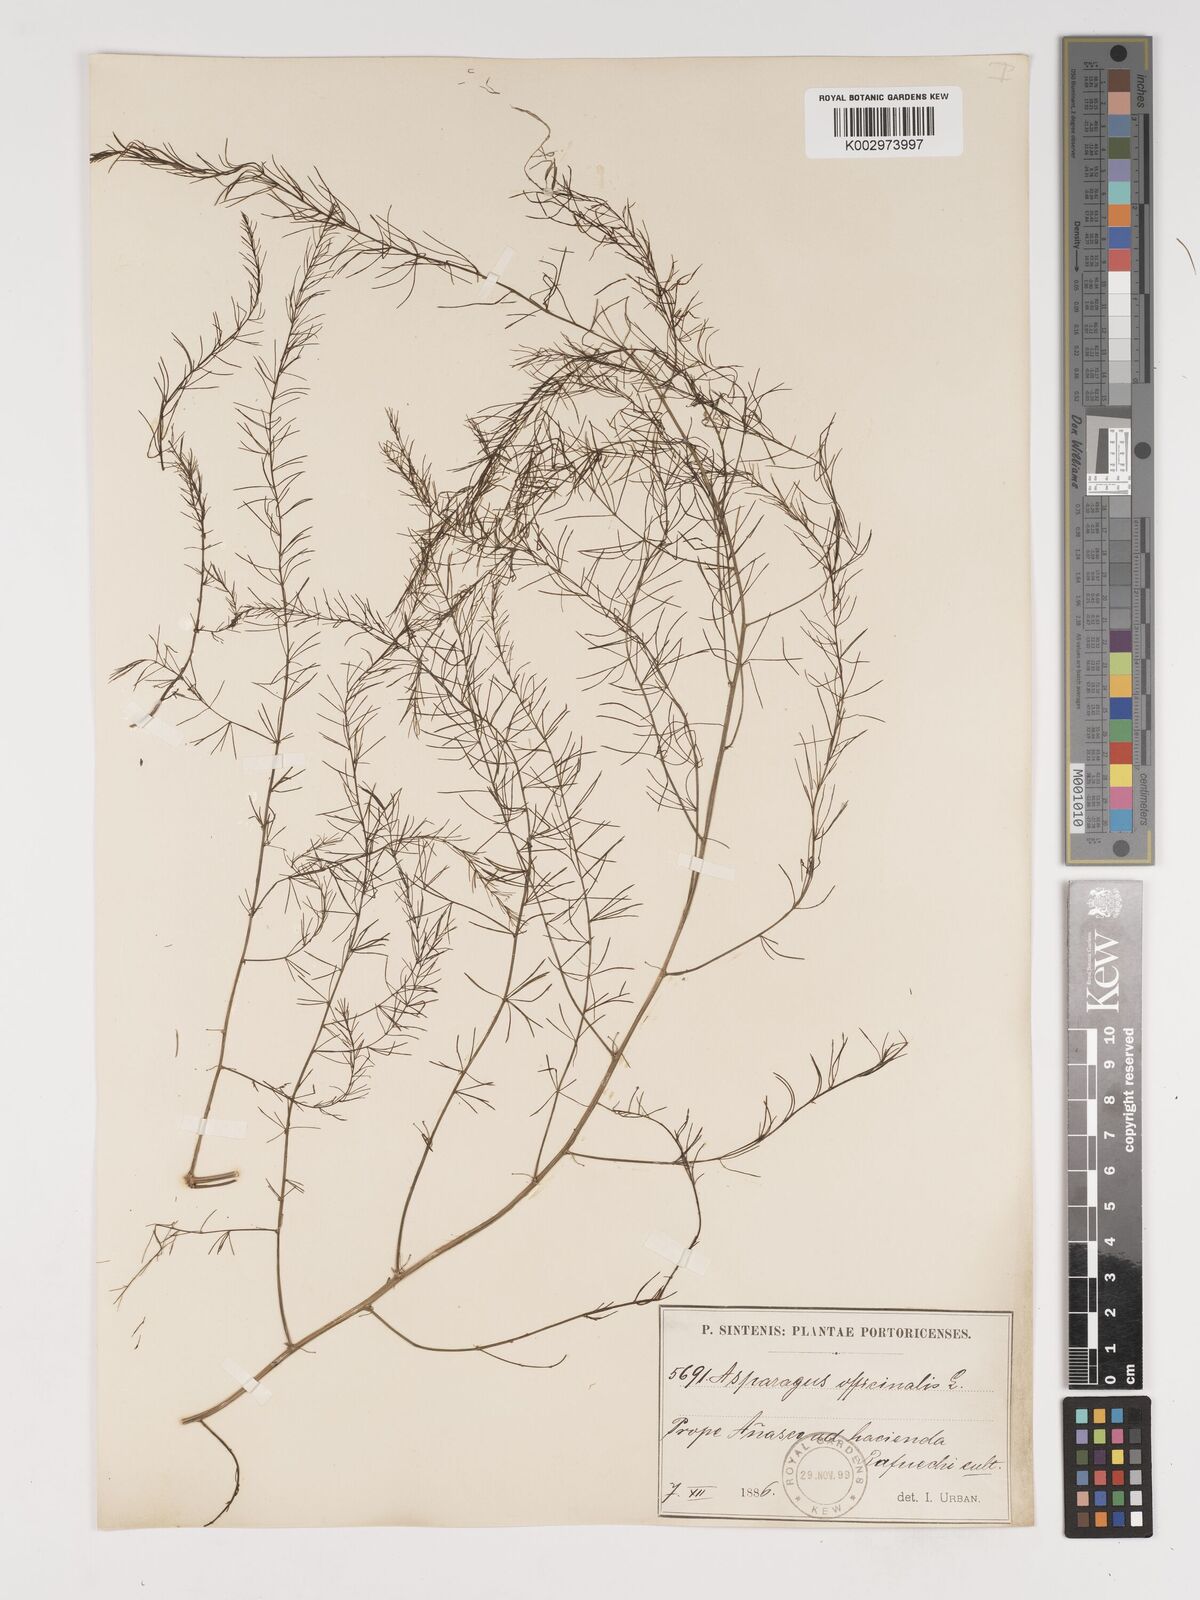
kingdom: Plantae
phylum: Tracheophyta
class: Liliopsida
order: Asparagales
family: Asparagaceae
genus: Asparagus
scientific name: Asparagus officinalis
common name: Garden asparagus
